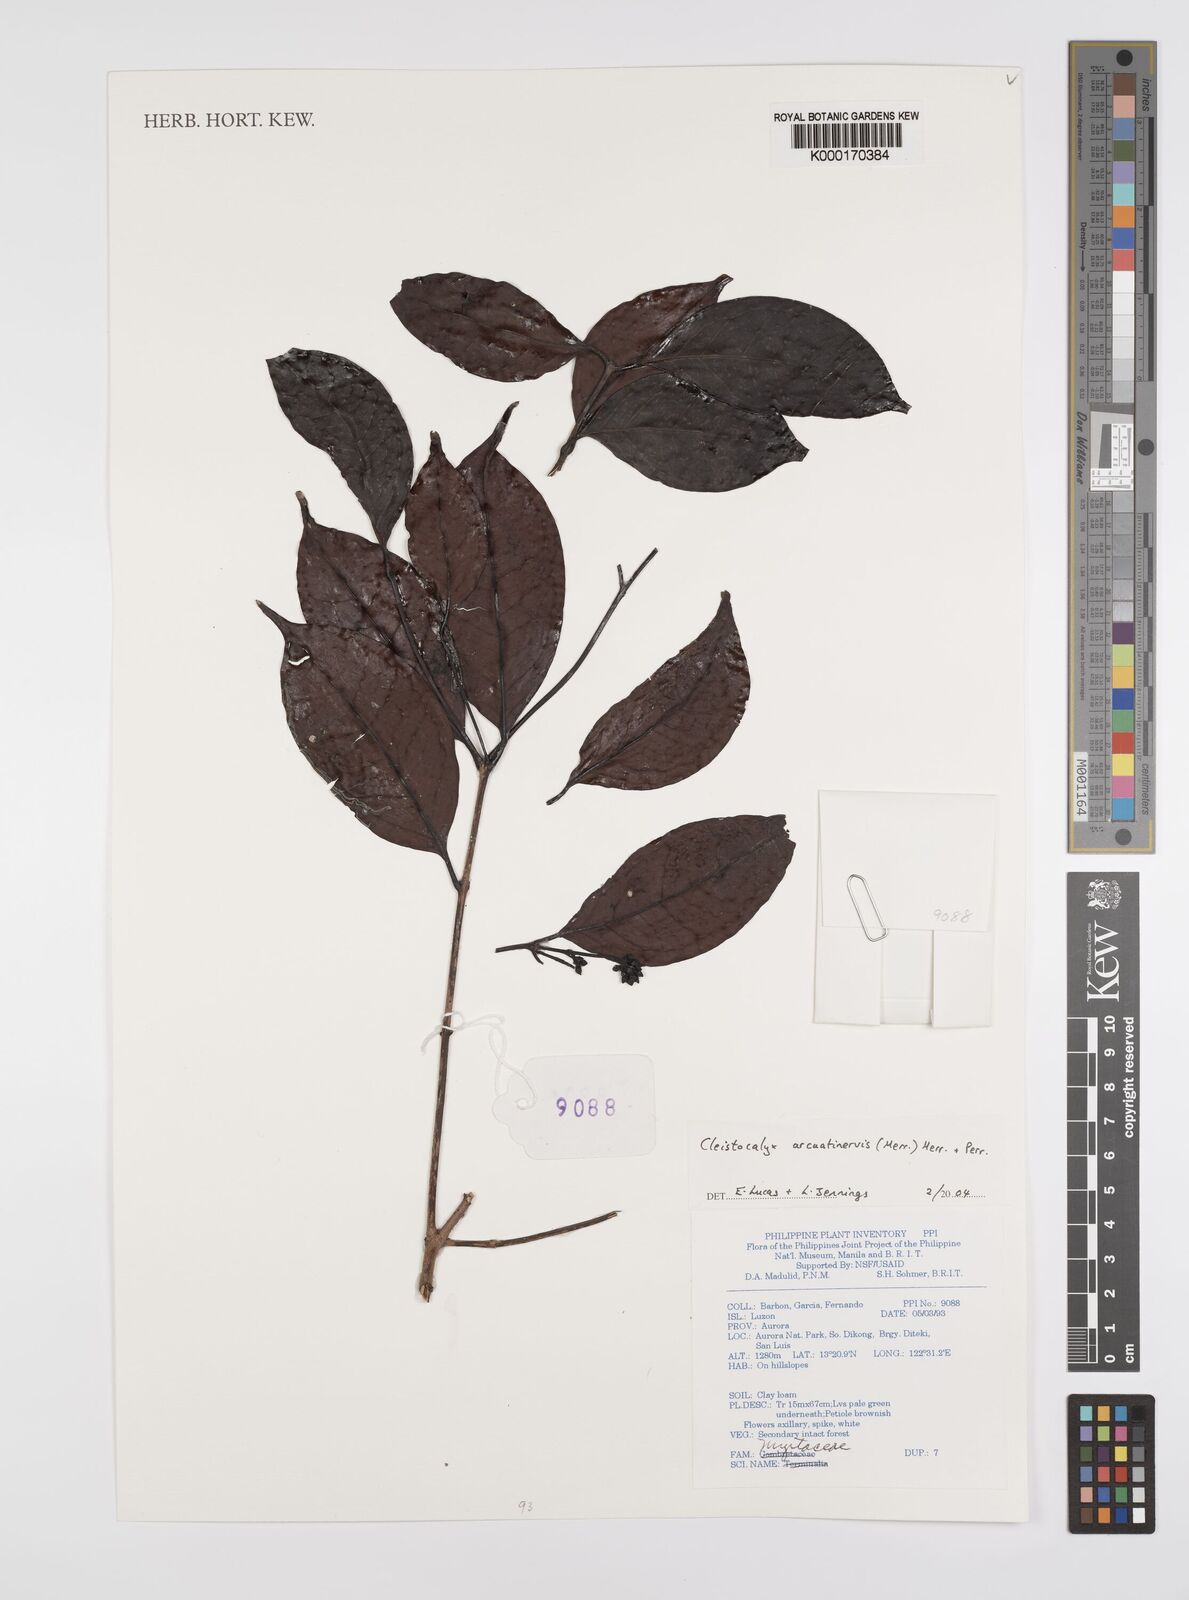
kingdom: Plantae
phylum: Tracheophyta
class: Magnoliopsida
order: Myrtales
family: Myrtaceae
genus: Syzygium
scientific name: Syzygium
